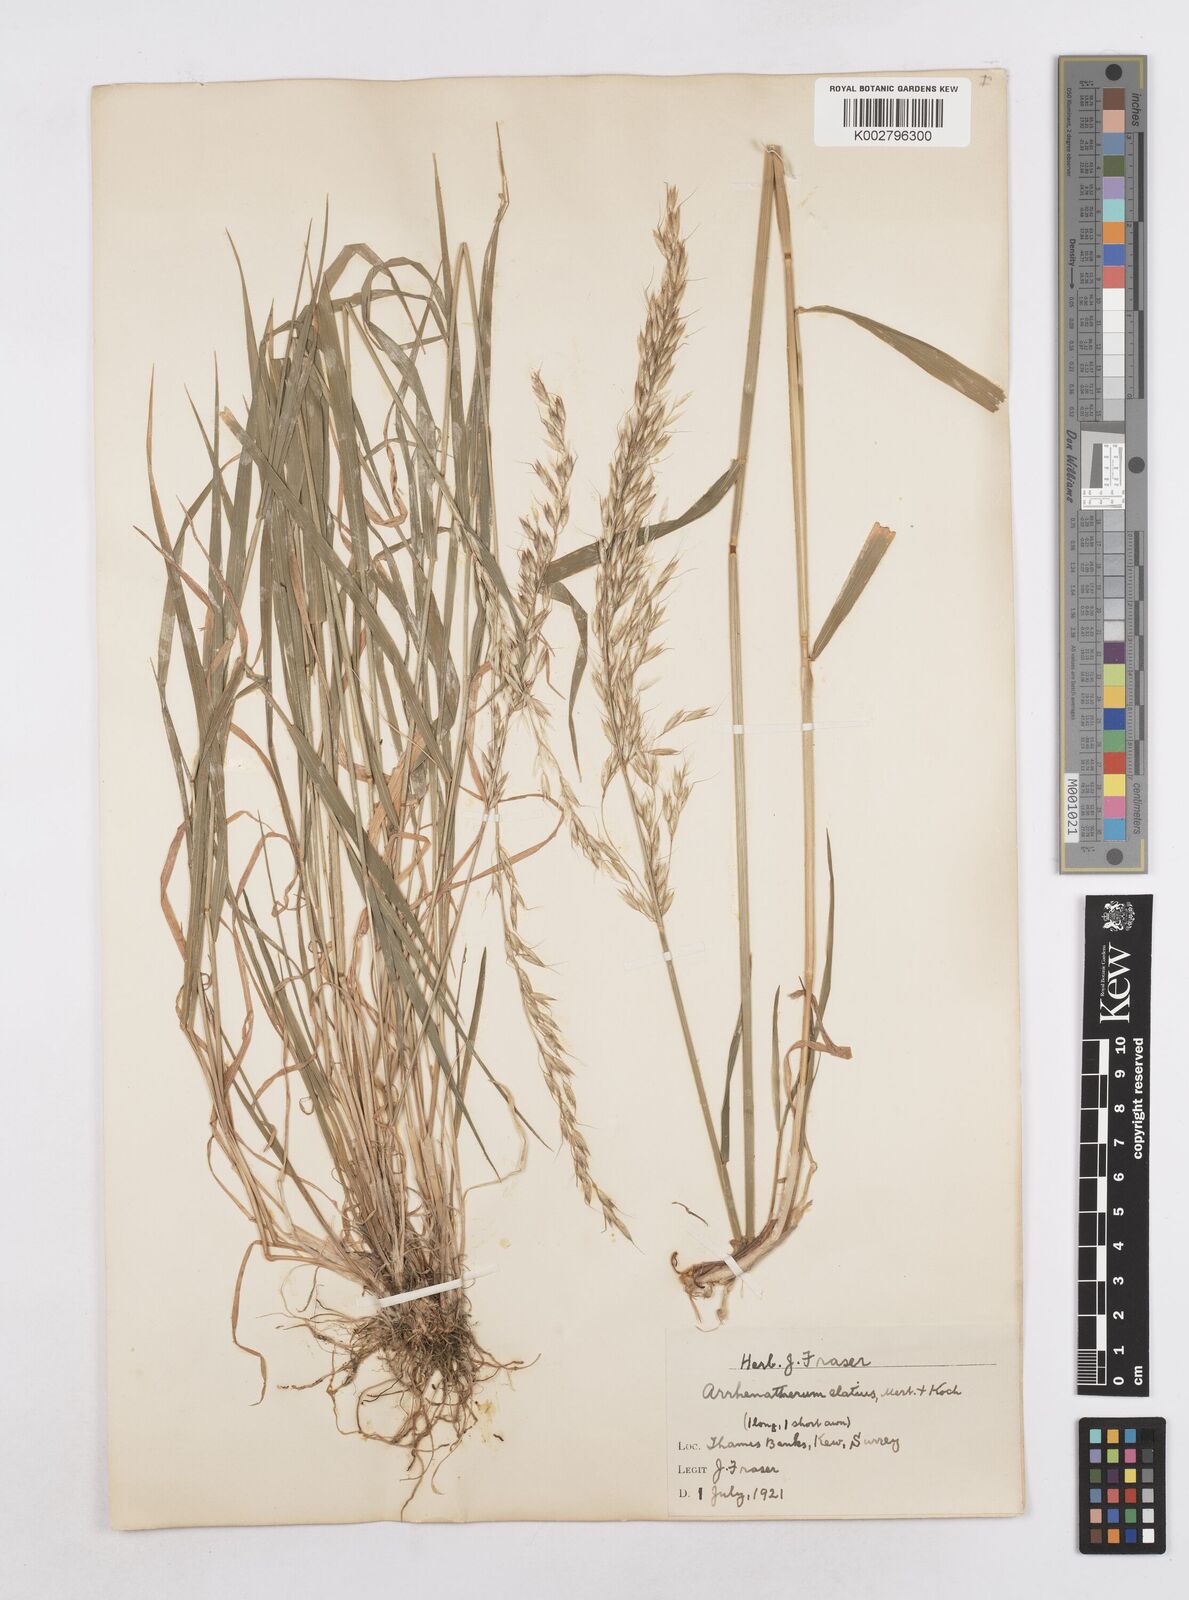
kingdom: Plantae
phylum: Tracheophyta
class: Liliopsida
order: Poales
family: Poaceae
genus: Arrhenatherum
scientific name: Arrhenatherum elatius
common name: Tall oatgrass
